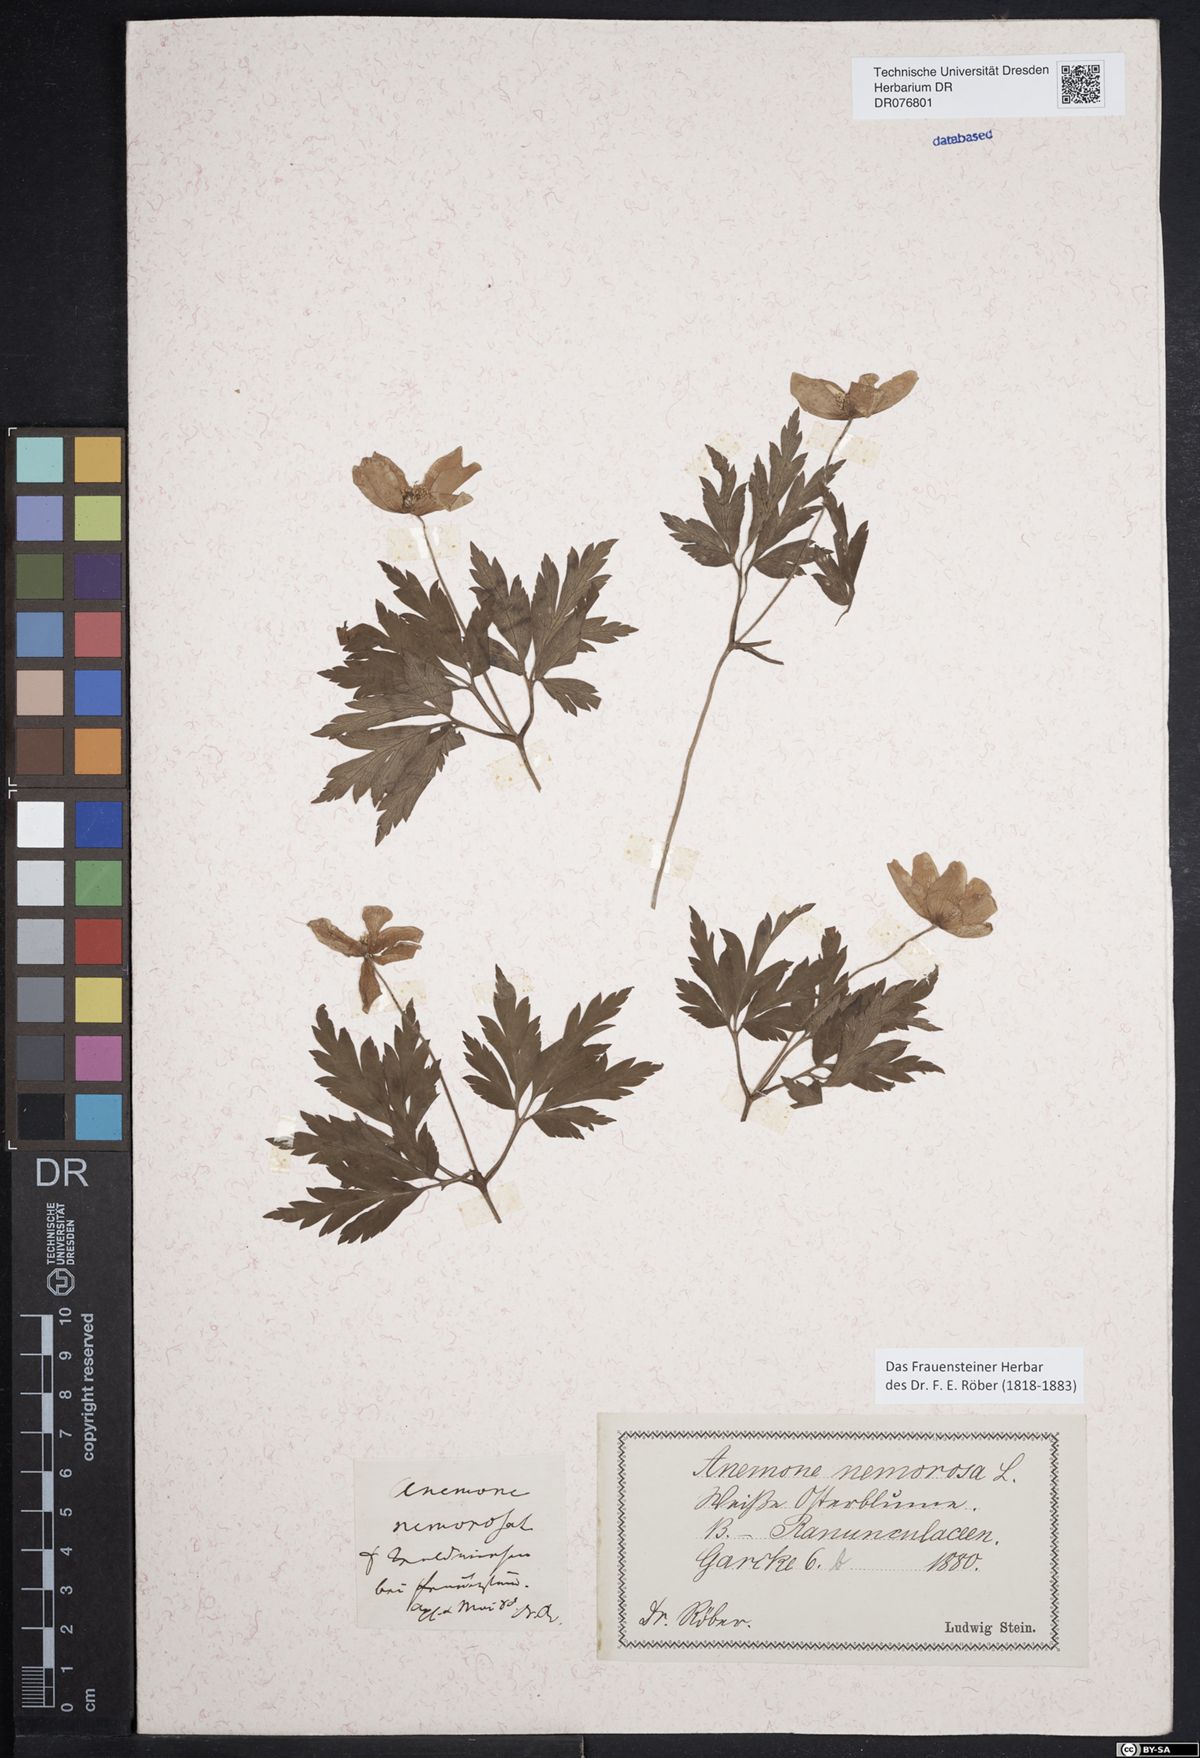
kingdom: Plantae
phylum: Tracheophyta
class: Magnoliopsida
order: Ranunculales
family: Ranunculaceae
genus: Anemone
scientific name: Anemone nemorosa
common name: Wood anemone
